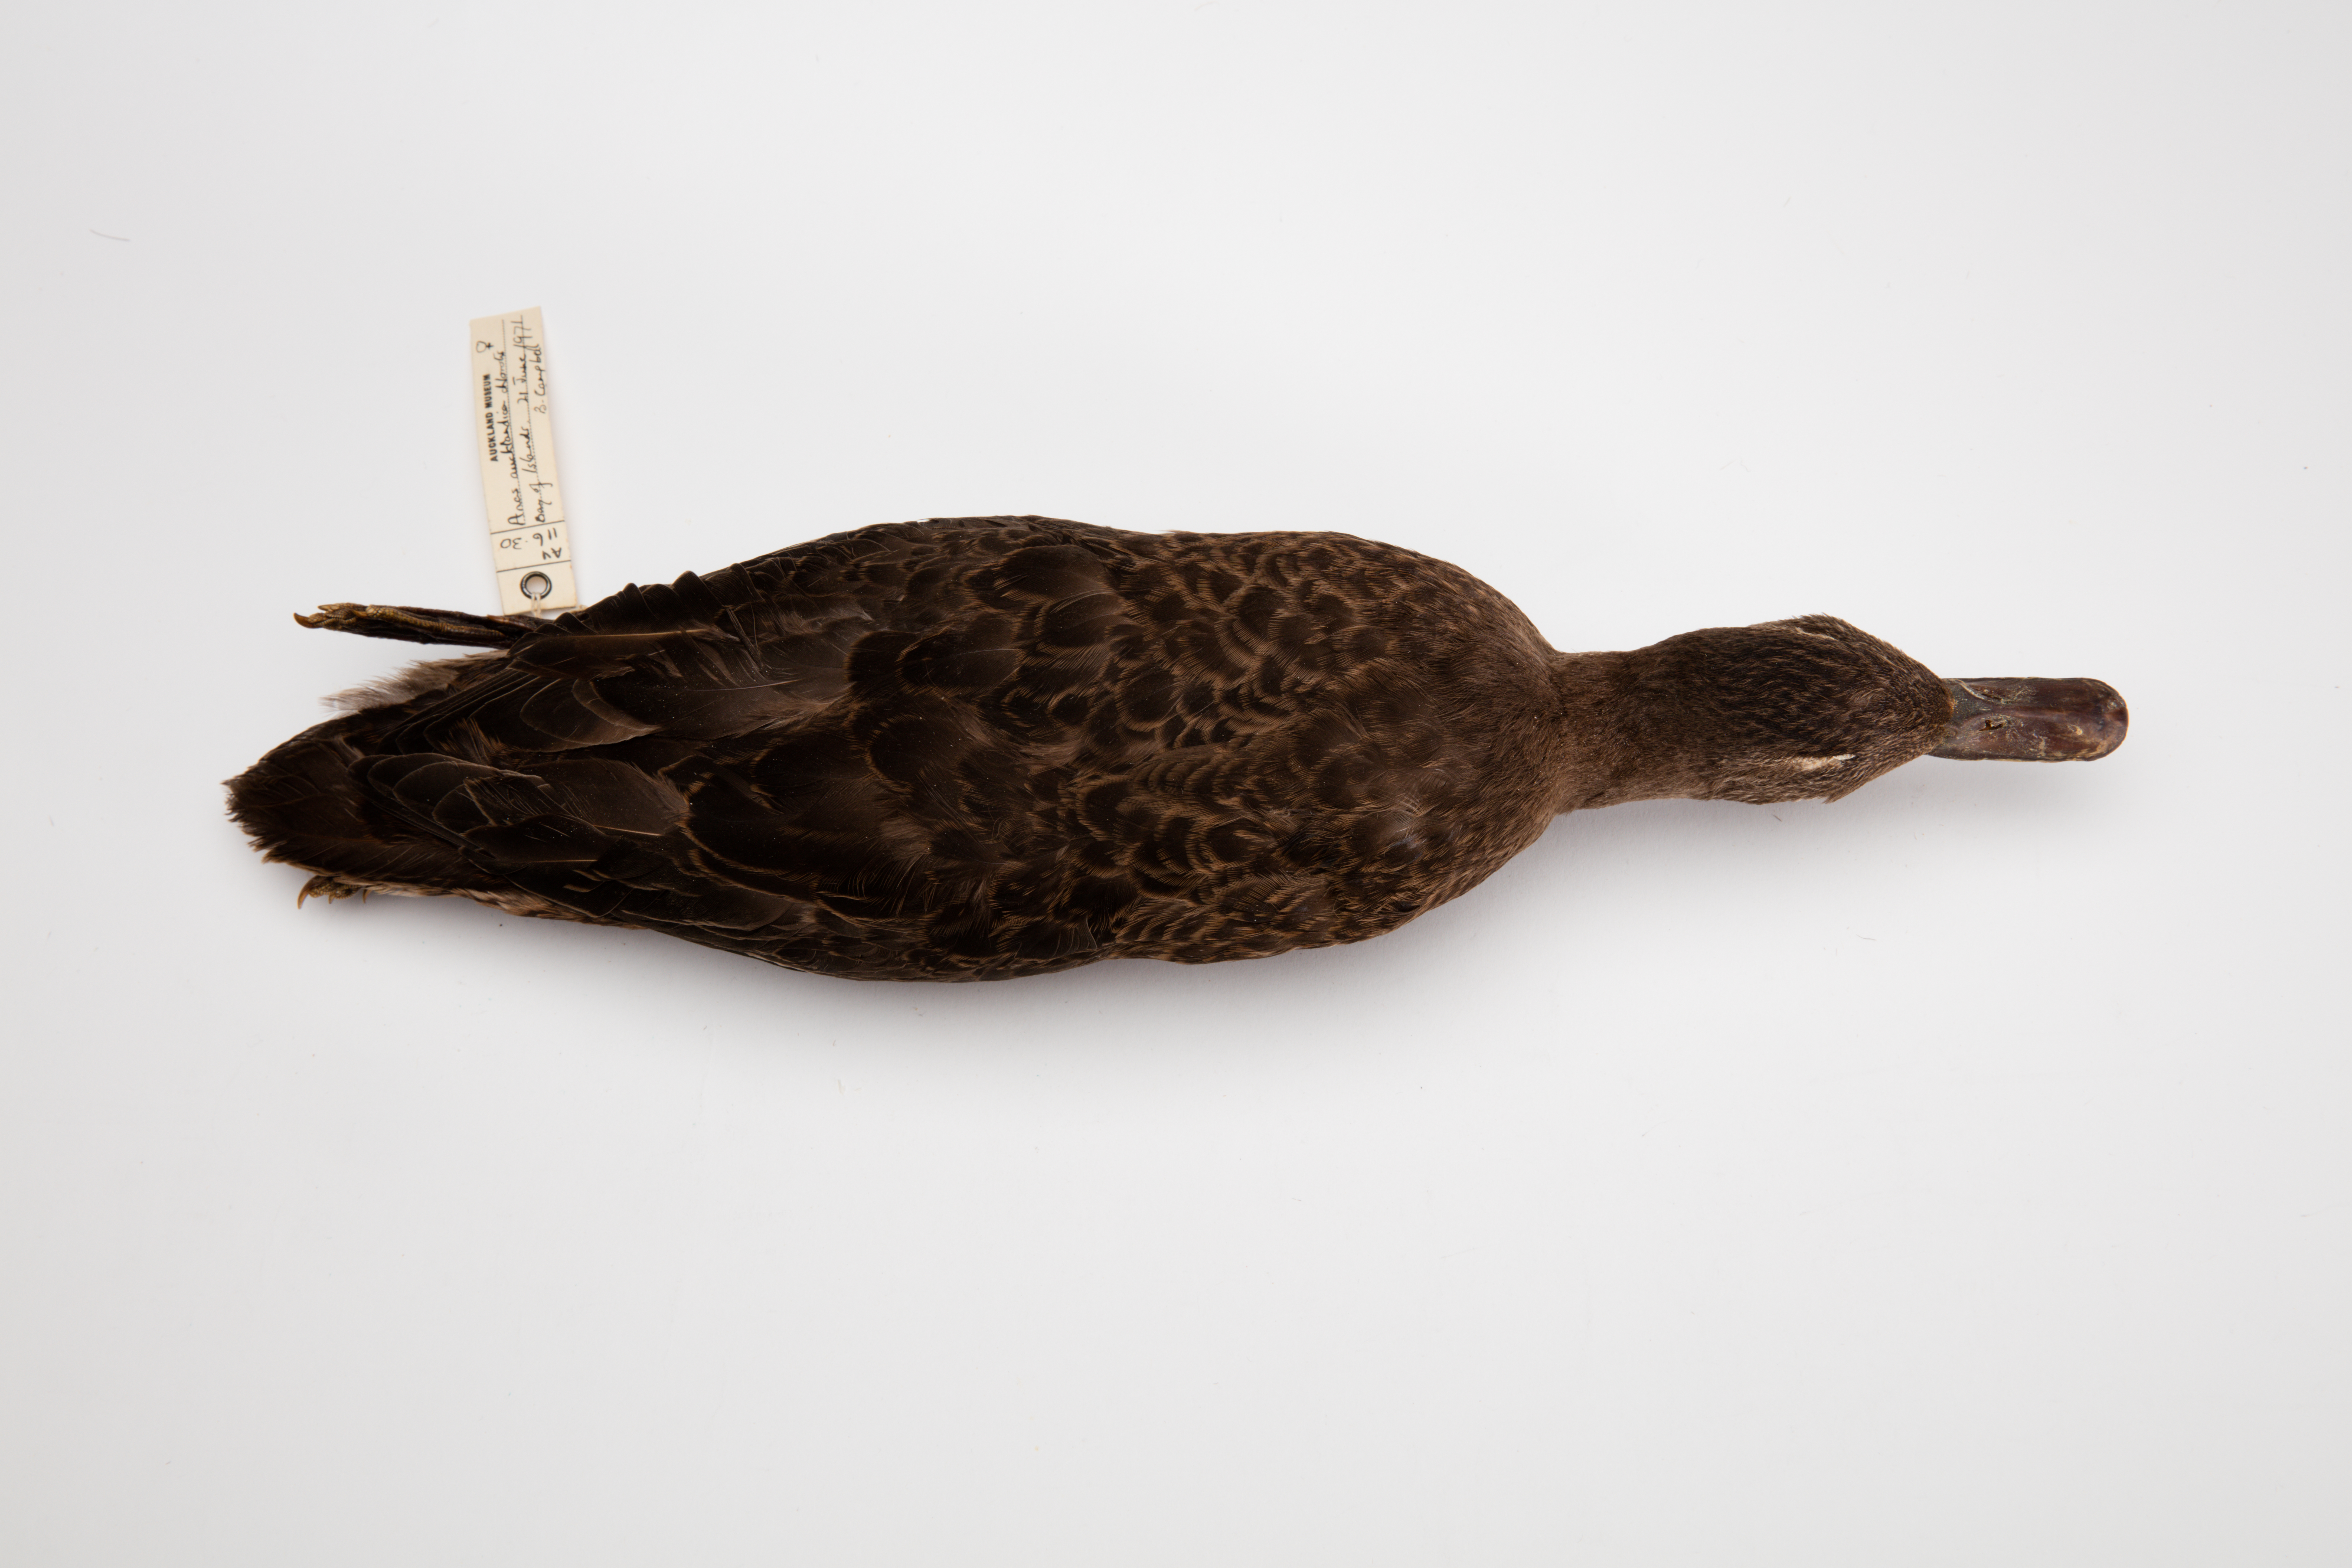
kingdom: Animalia
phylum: Chordata
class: Aves
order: Anseriformes
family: Anatidae
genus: Anas
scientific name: Anas chlorotis
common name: Brown teal
